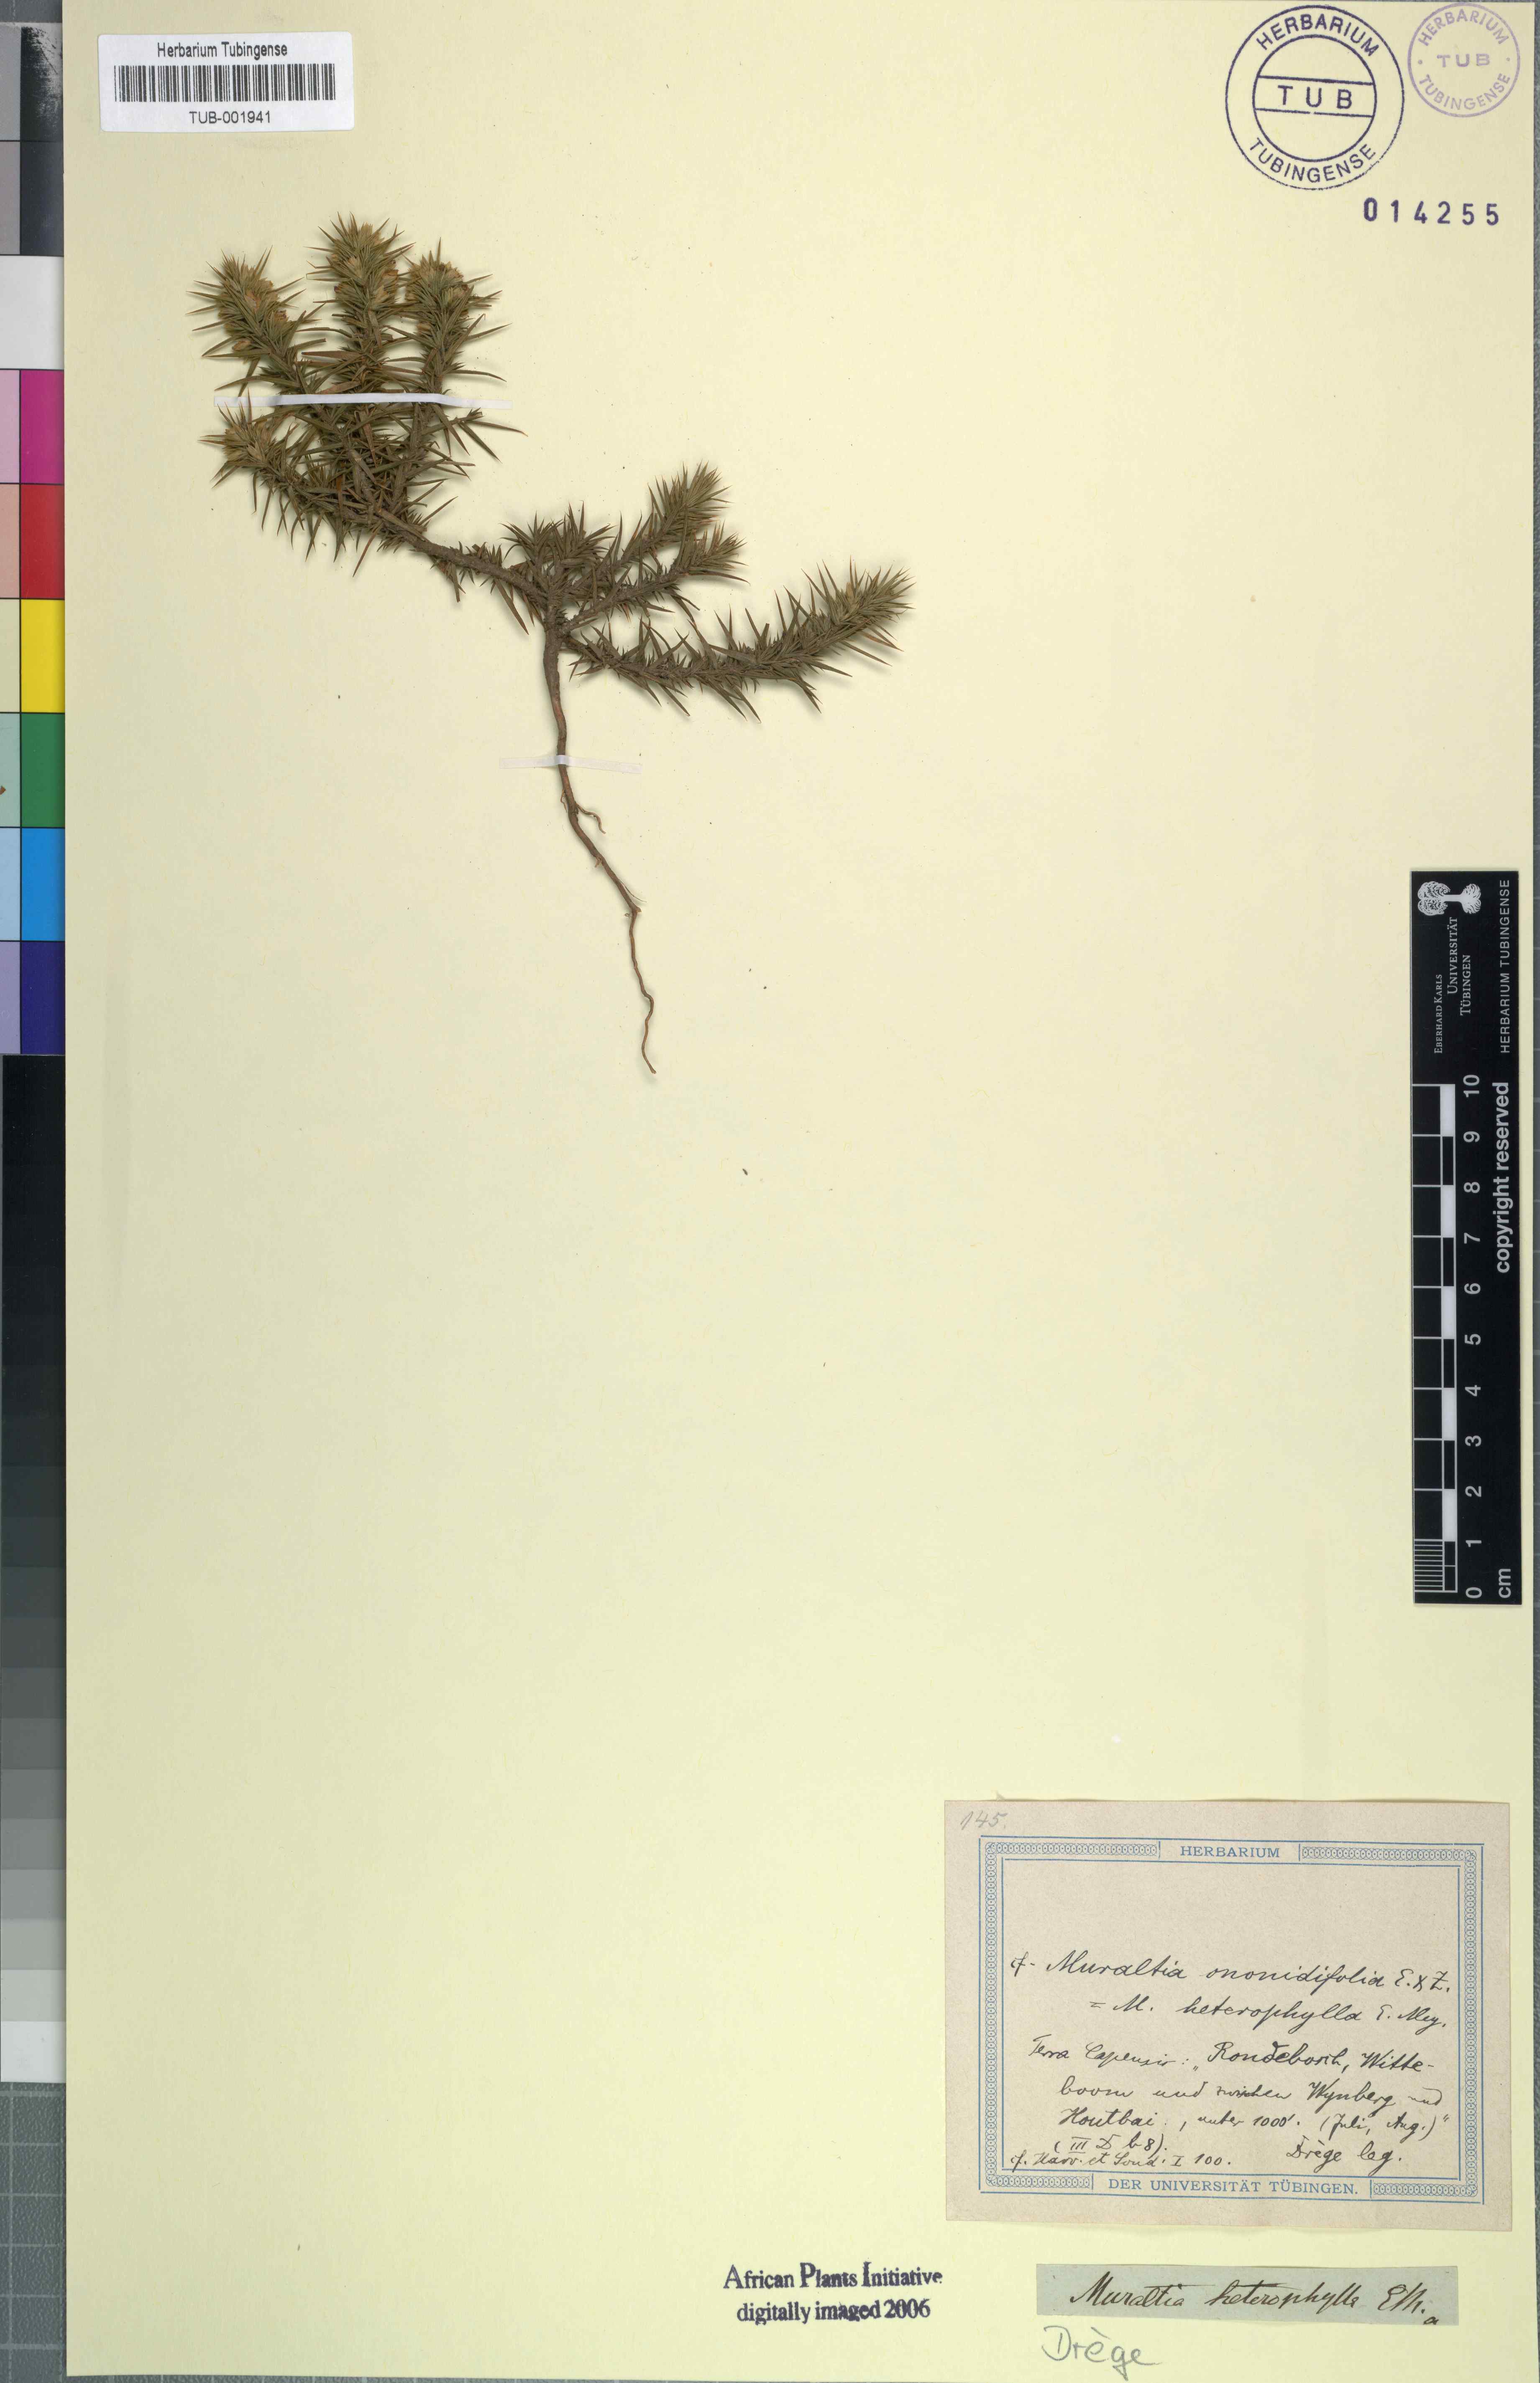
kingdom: Plantae
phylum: Tracheophyta
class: Magnoliopsida
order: Fabales
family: Polygalaceae
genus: Muraltia
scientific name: Muraltia ononidifolia
